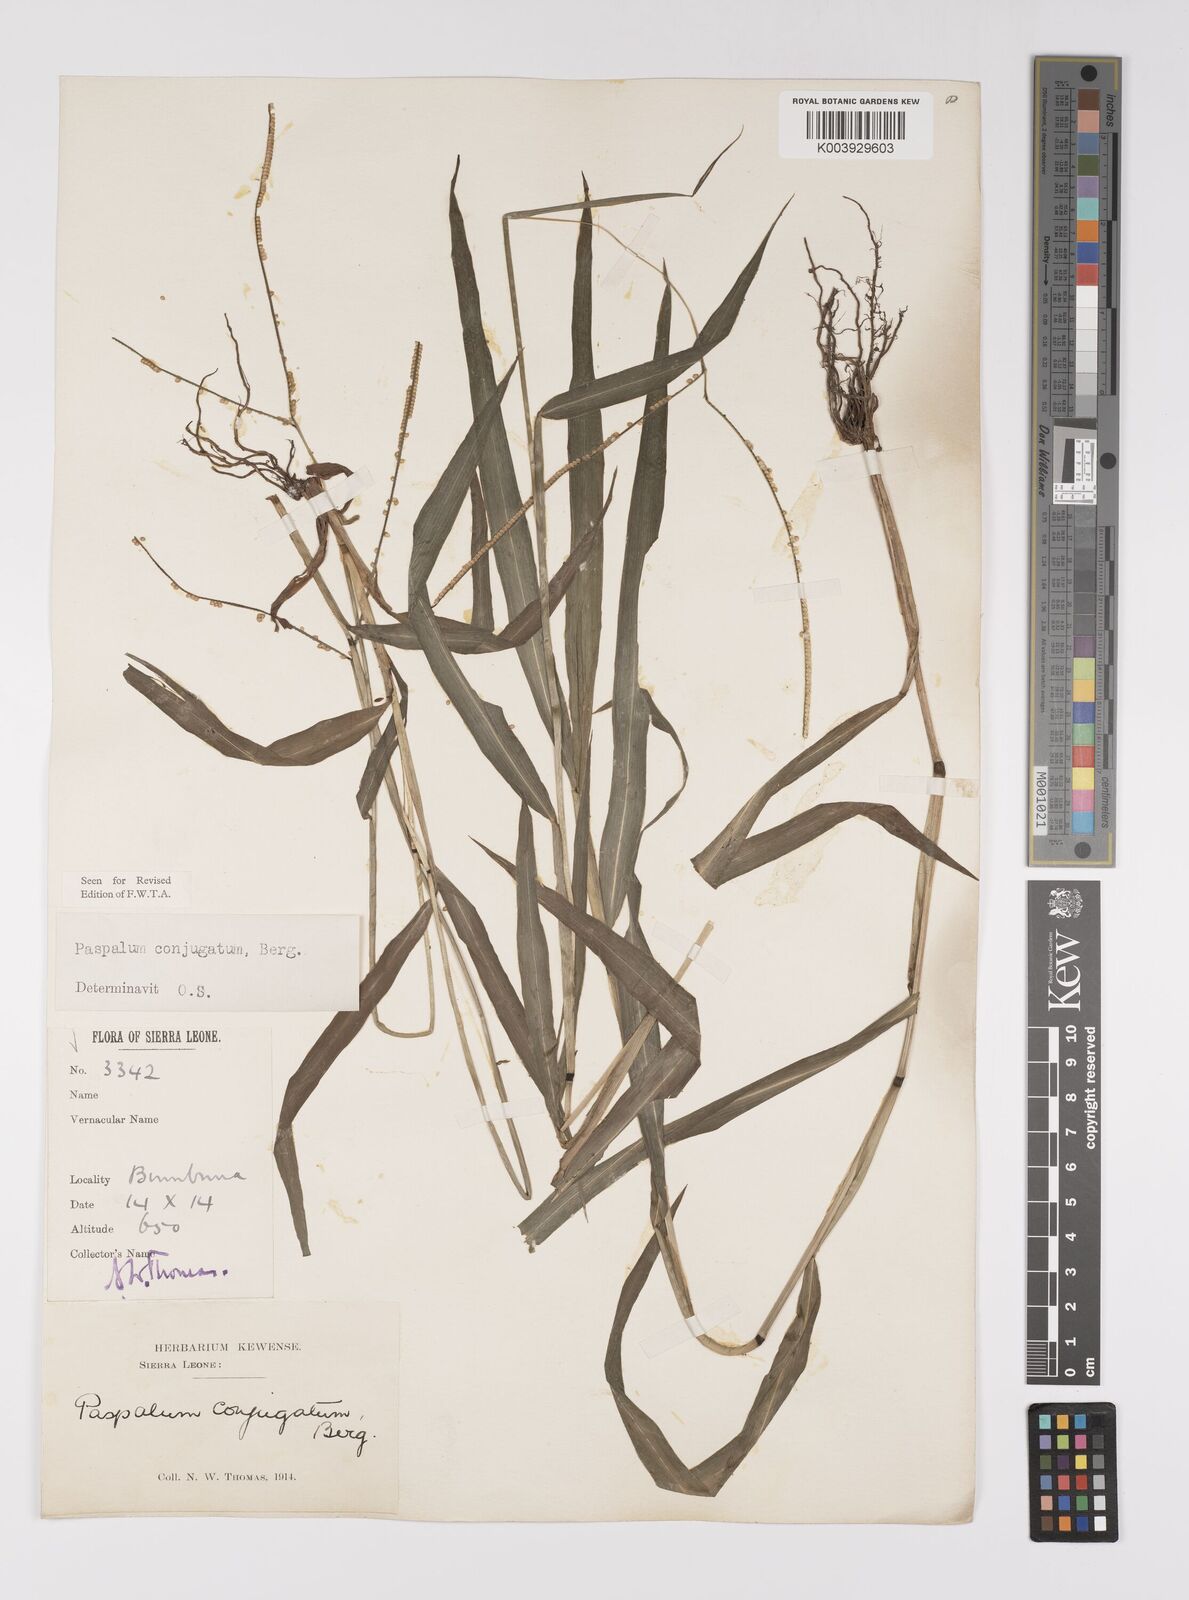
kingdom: Plantae
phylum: Tracheophyta
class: Liliopsida
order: Poales
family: Poaceae
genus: Paspalum
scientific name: Paspalum conjugatum
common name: Hilograss
